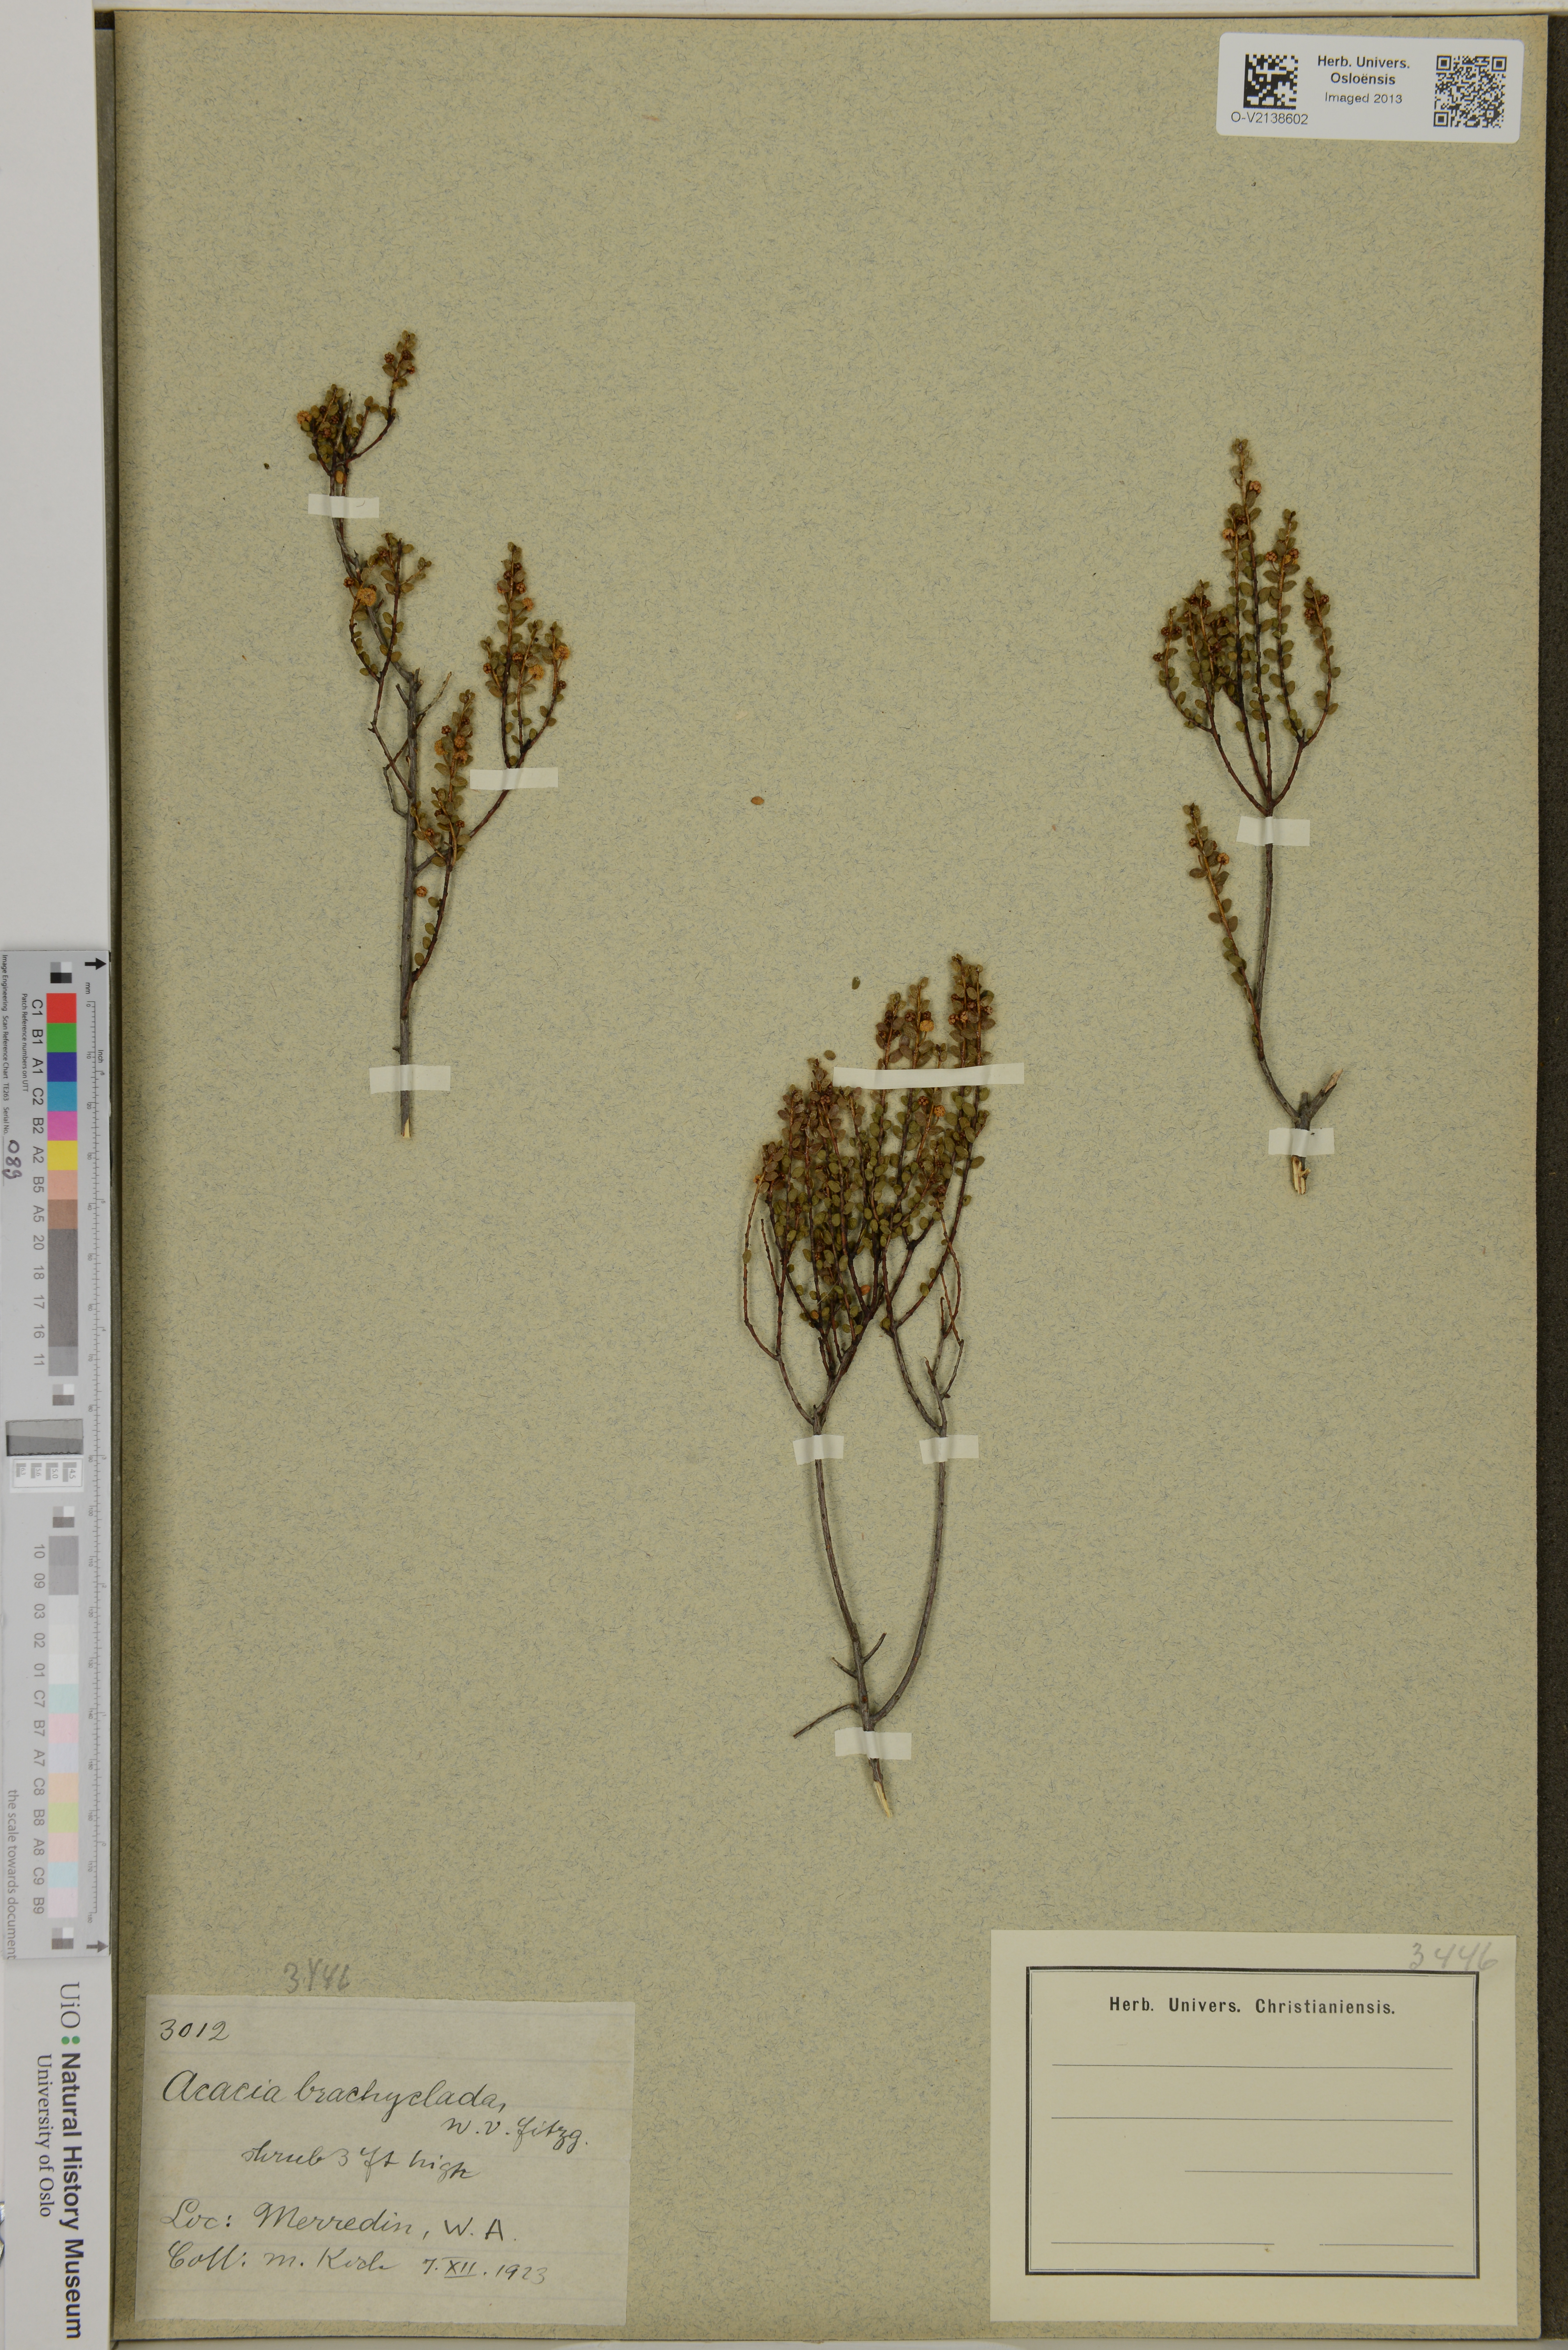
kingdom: Plantae
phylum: Tracheophyta
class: Magnoliopsida
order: Fabales
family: Fabaceae
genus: Acacia
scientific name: Acacia brachyclada
